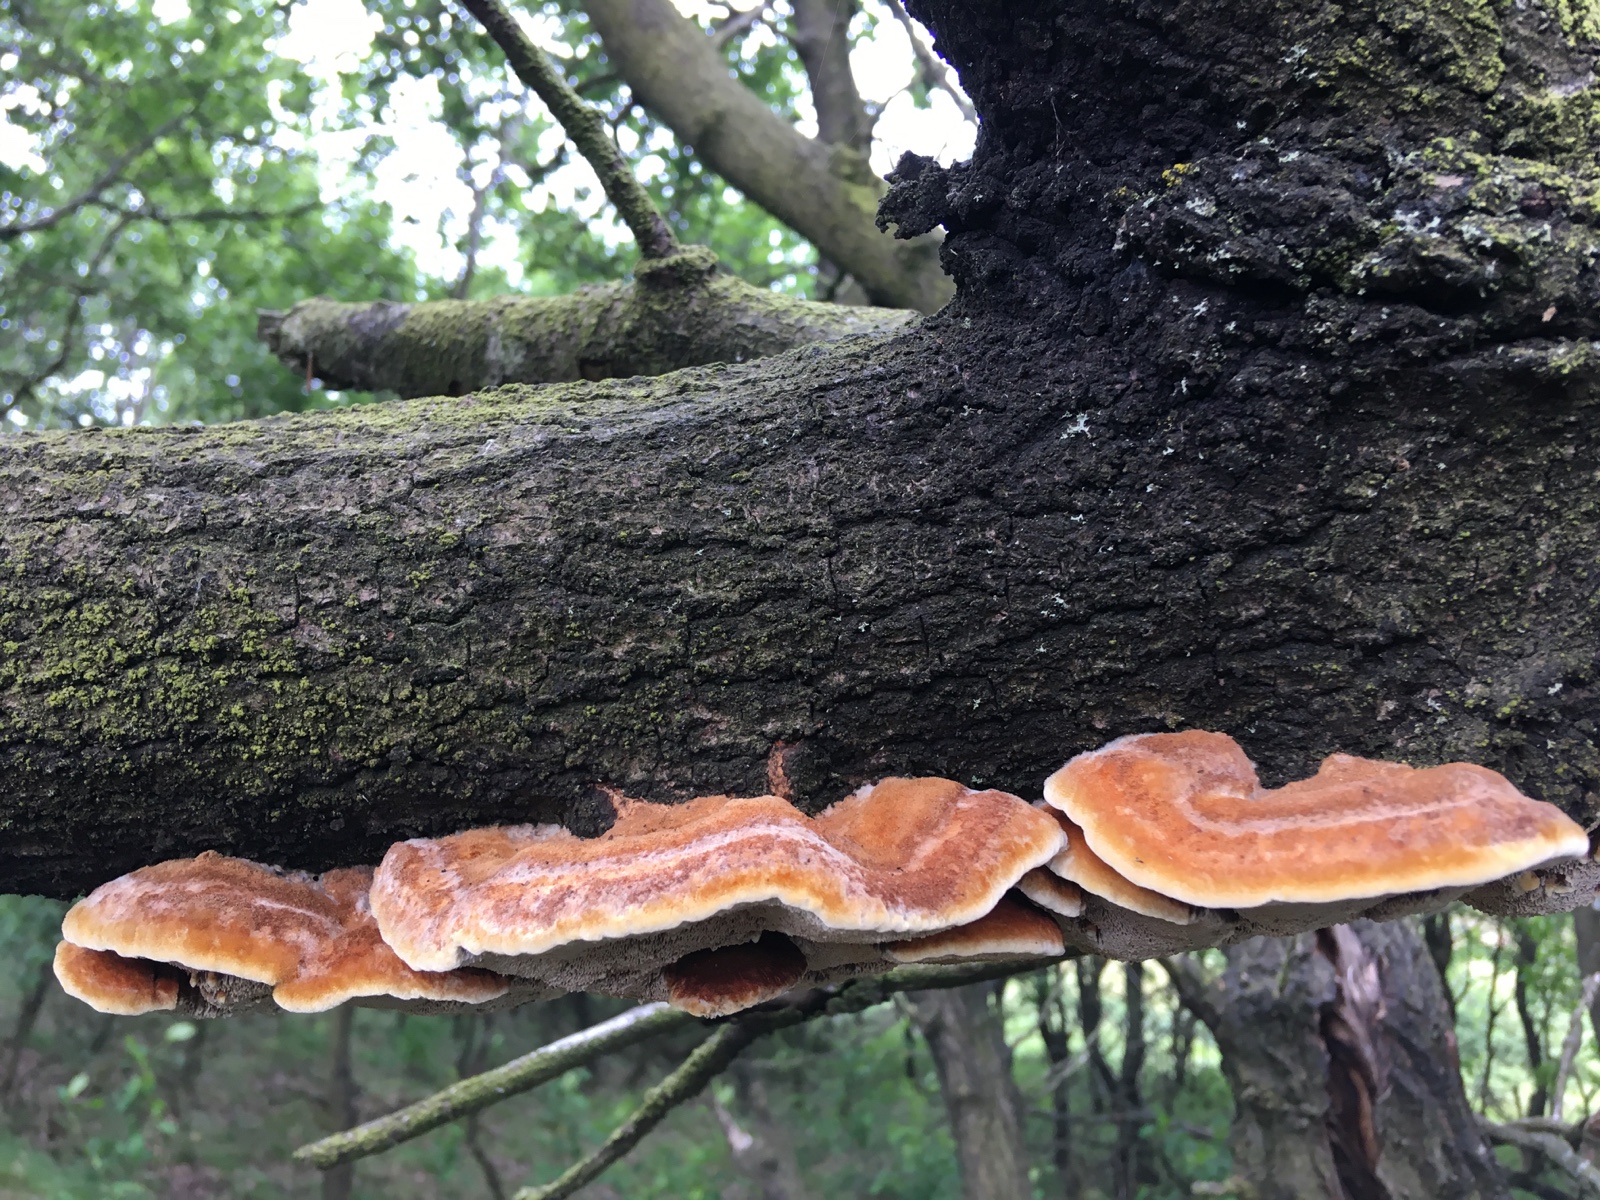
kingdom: Fungi
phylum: Basidiomycota
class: Agaricomycetes
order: Hymenochaetales
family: Hymenochaetaceae
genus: Inocutis
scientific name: Inocutis rheades
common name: ræve-spejlporesvamp
